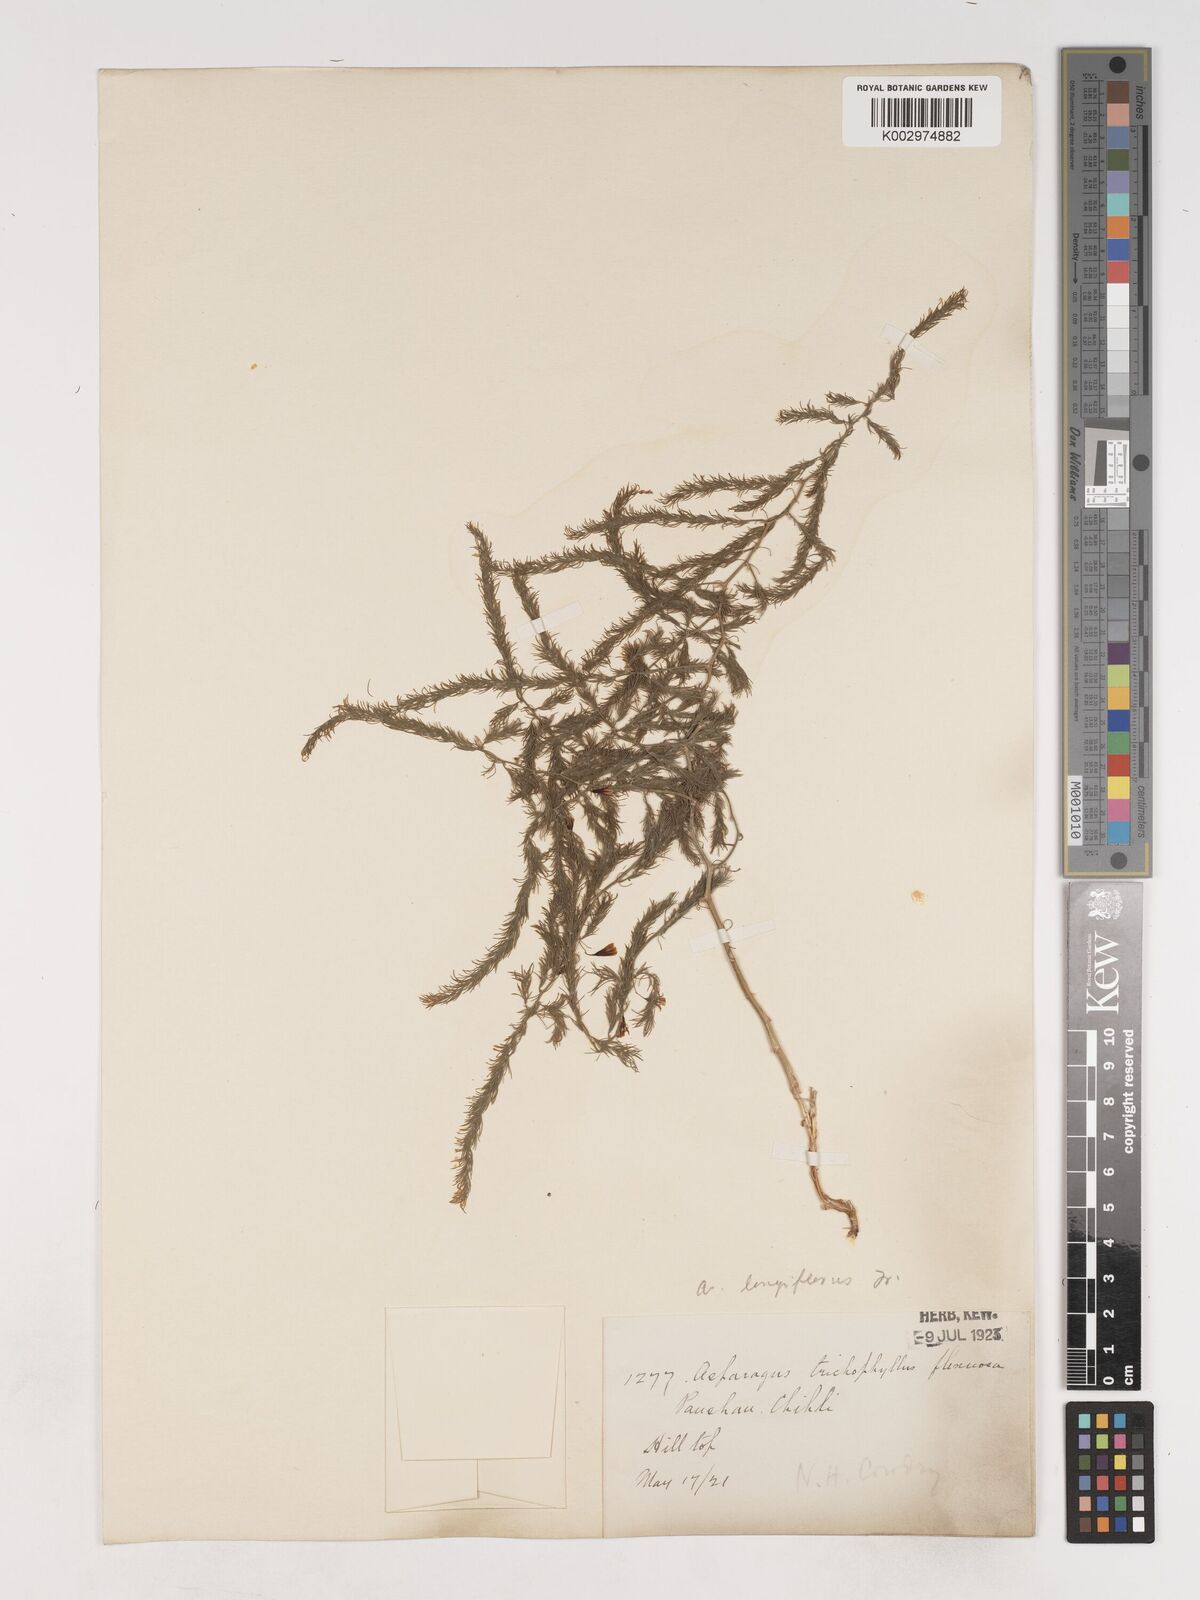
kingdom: Plantae
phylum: Tracheophyta
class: Liliopsida
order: Asparagales
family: Asparagaceae
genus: Asparagus
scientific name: Asparagus longiflorus
